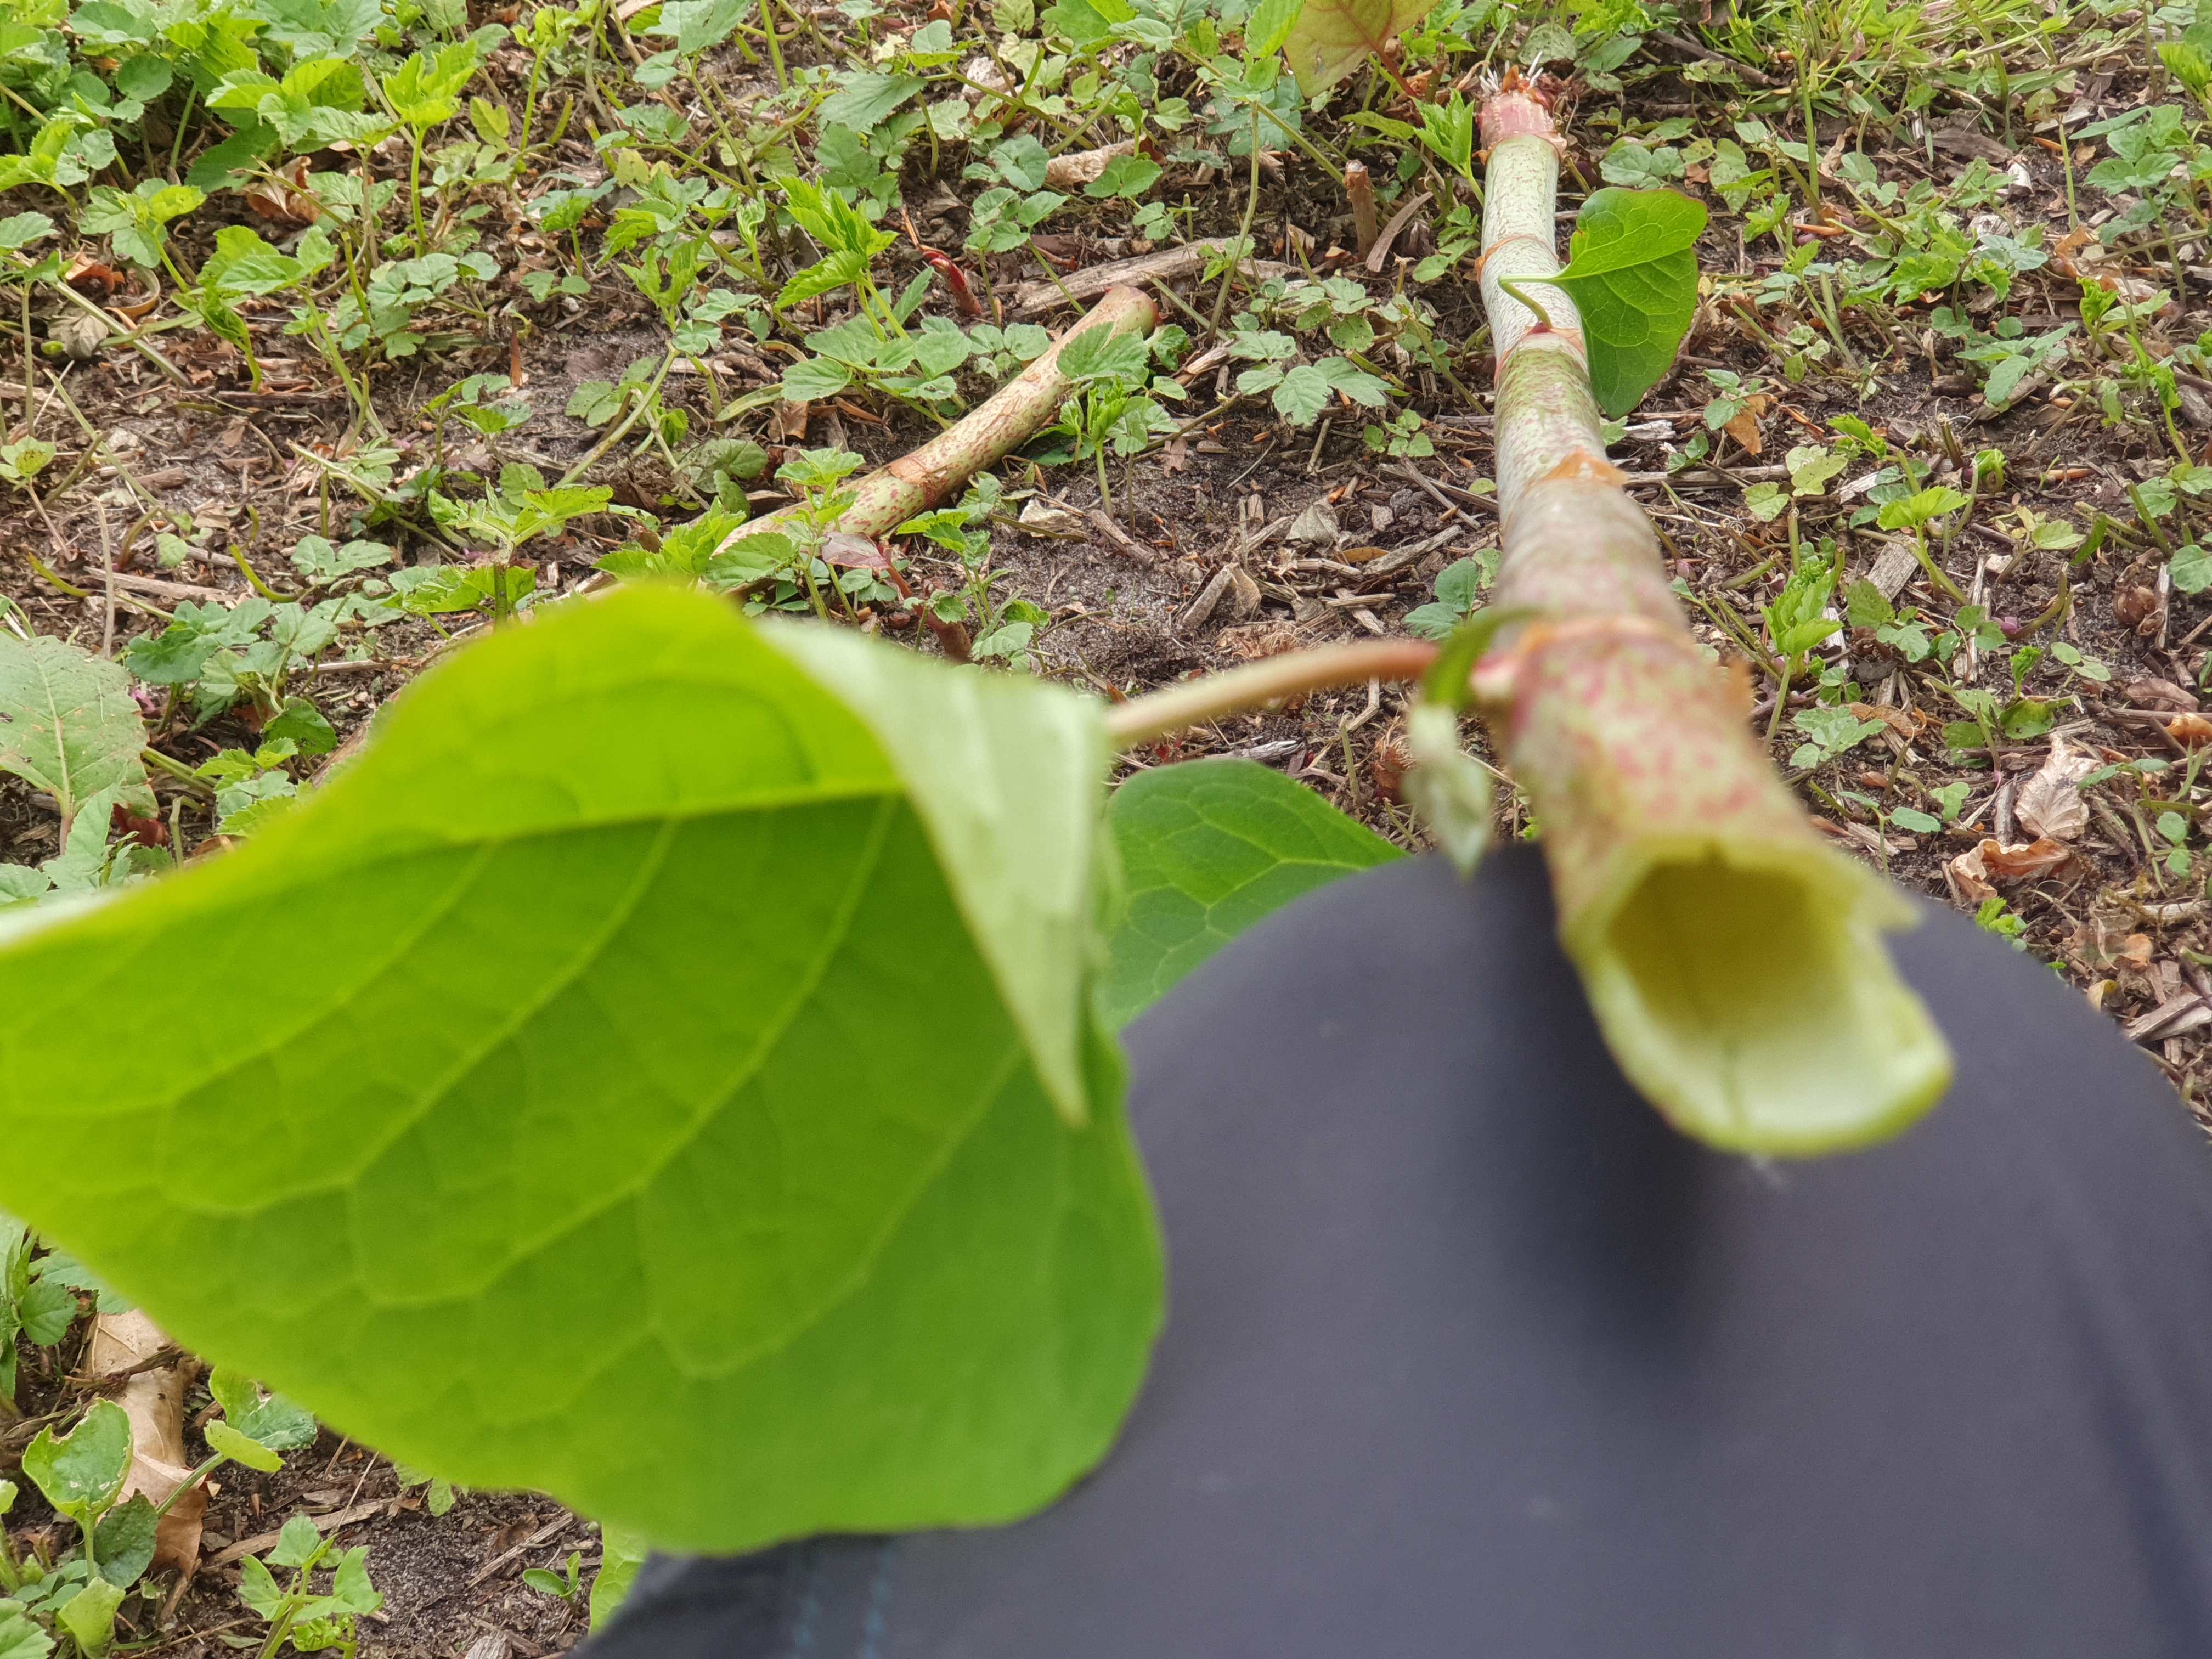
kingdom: Plantae
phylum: Tracheophyta
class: Magnoliopsida
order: Caryophyllales
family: Polygonaceae
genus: Reynoutria
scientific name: Reynoutria bohemica
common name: Hybrid-pileurt
